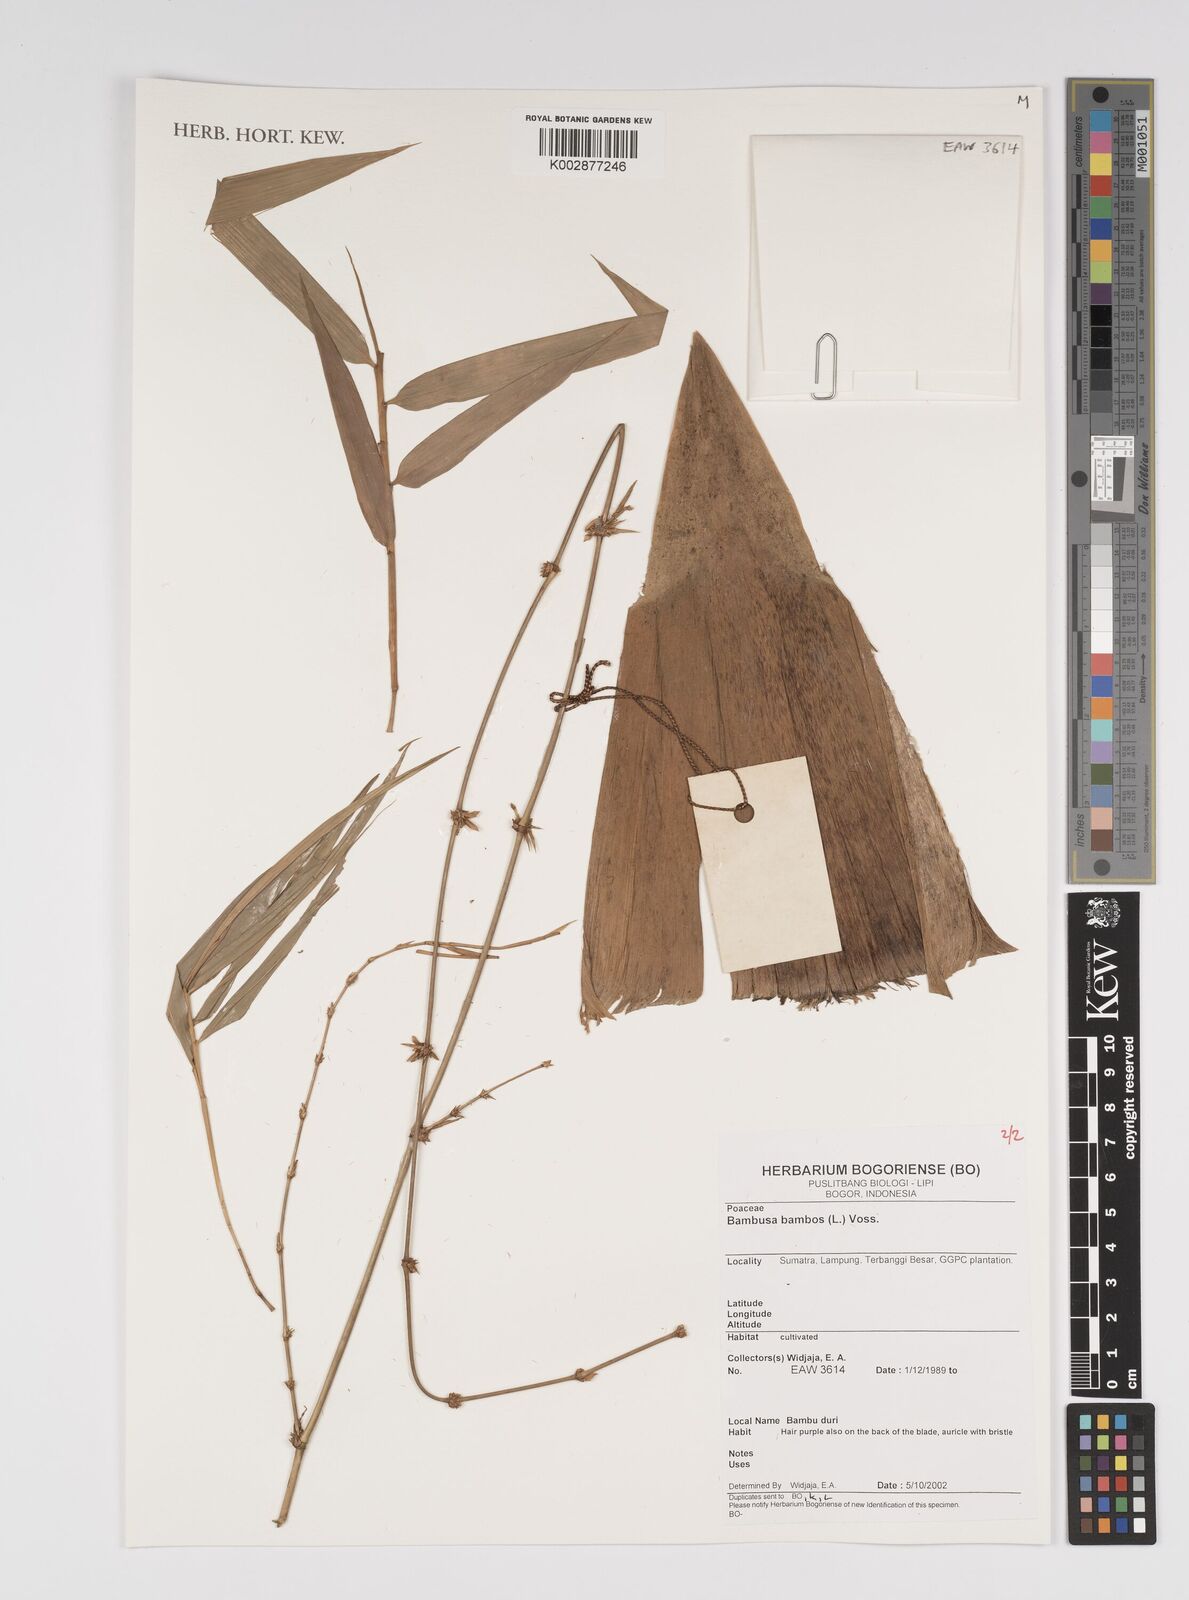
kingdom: Plantae
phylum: Tracheophyta
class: Liliopsida
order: Poales
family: Poaceae
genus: Bambusa
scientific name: Bambusa
